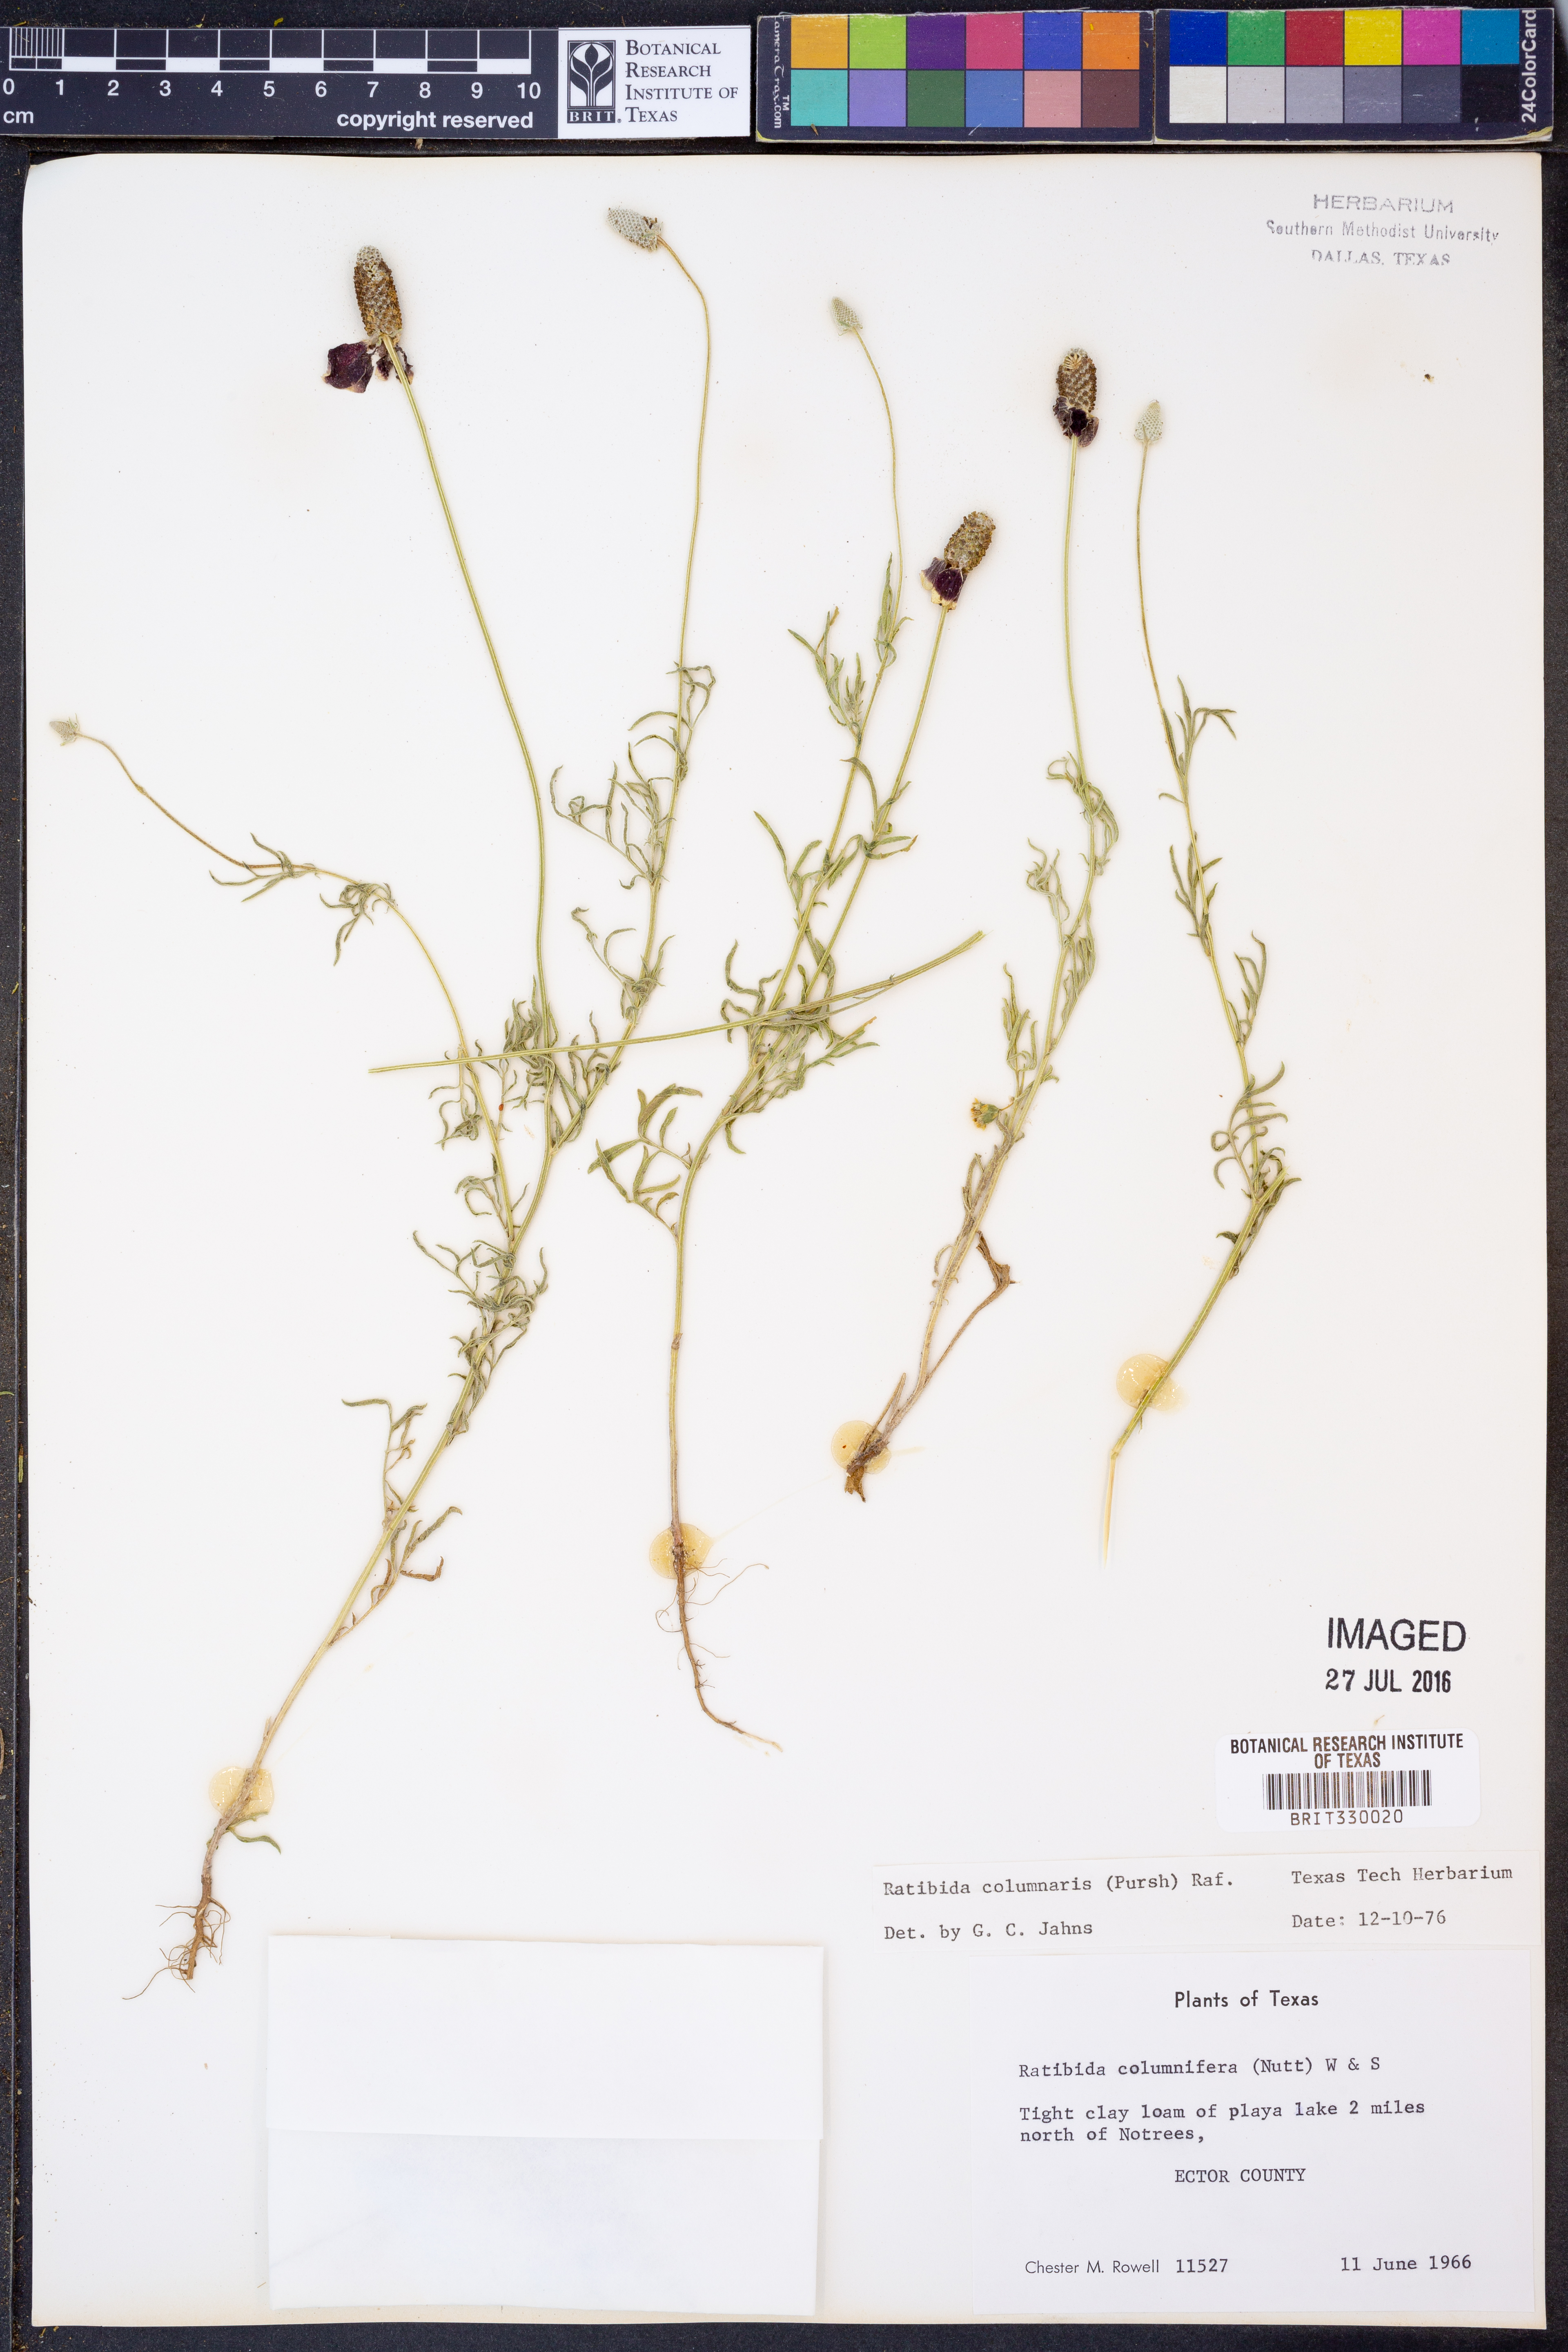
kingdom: Plantae
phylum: Tracheophyta
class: Magnoliopsida
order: Asterales
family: Asteraceae
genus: Ratibida
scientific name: Ratibida columnifera
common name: Prairie coneflower
